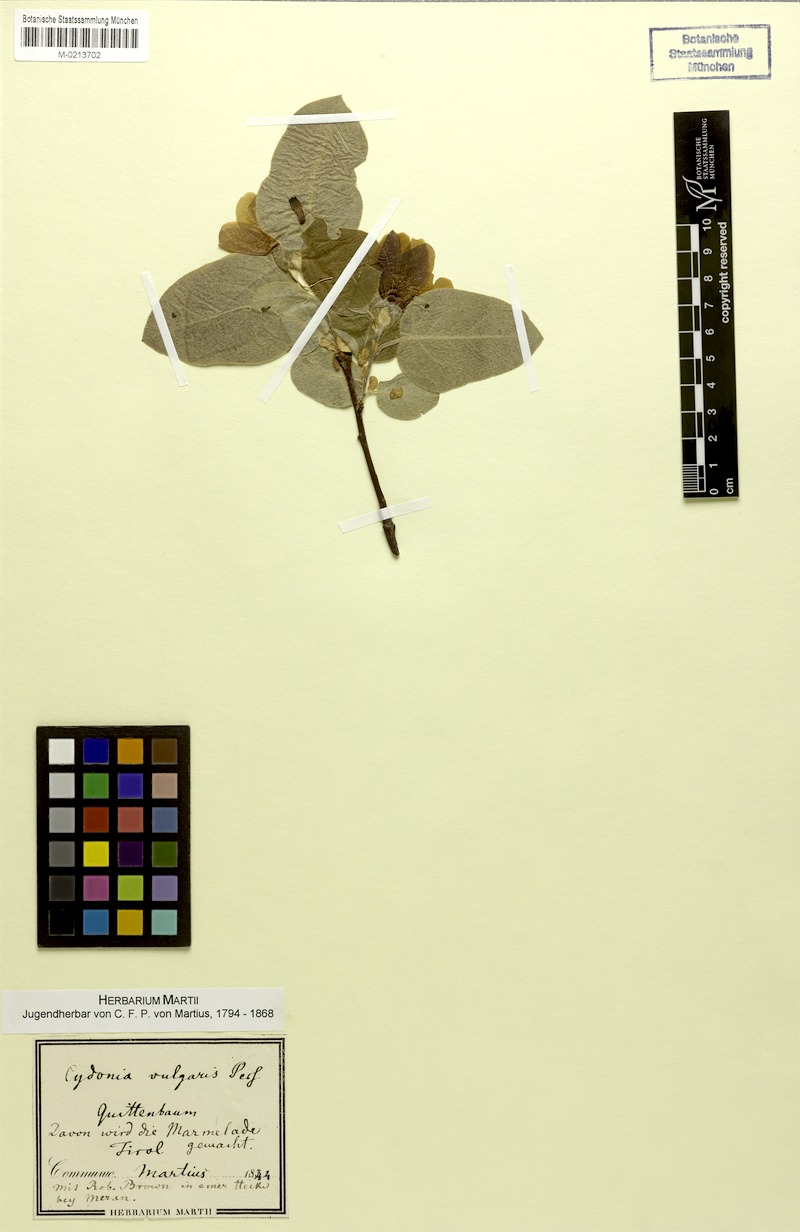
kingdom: Plantae
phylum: Tracheophyta
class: Magnoliopsida
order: Rosales
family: Rosaceae
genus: Cydonia
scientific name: Cydonia oblonga
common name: Quince
